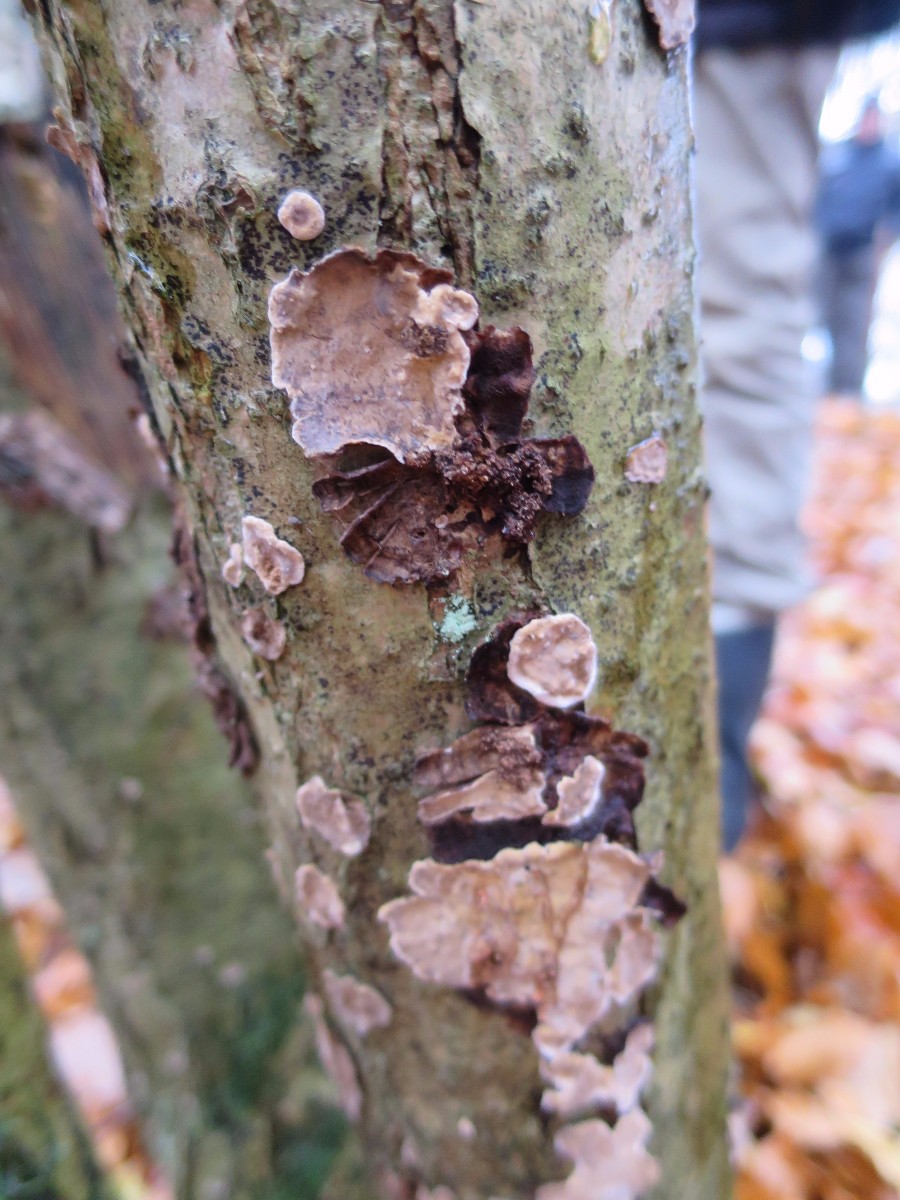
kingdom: Fungi
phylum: Basidiomycota
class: Agaricomycetes
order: Russulales
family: Stereaceae
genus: Stereum
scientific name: Stereum rugosum
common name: rynket lædersvamp
